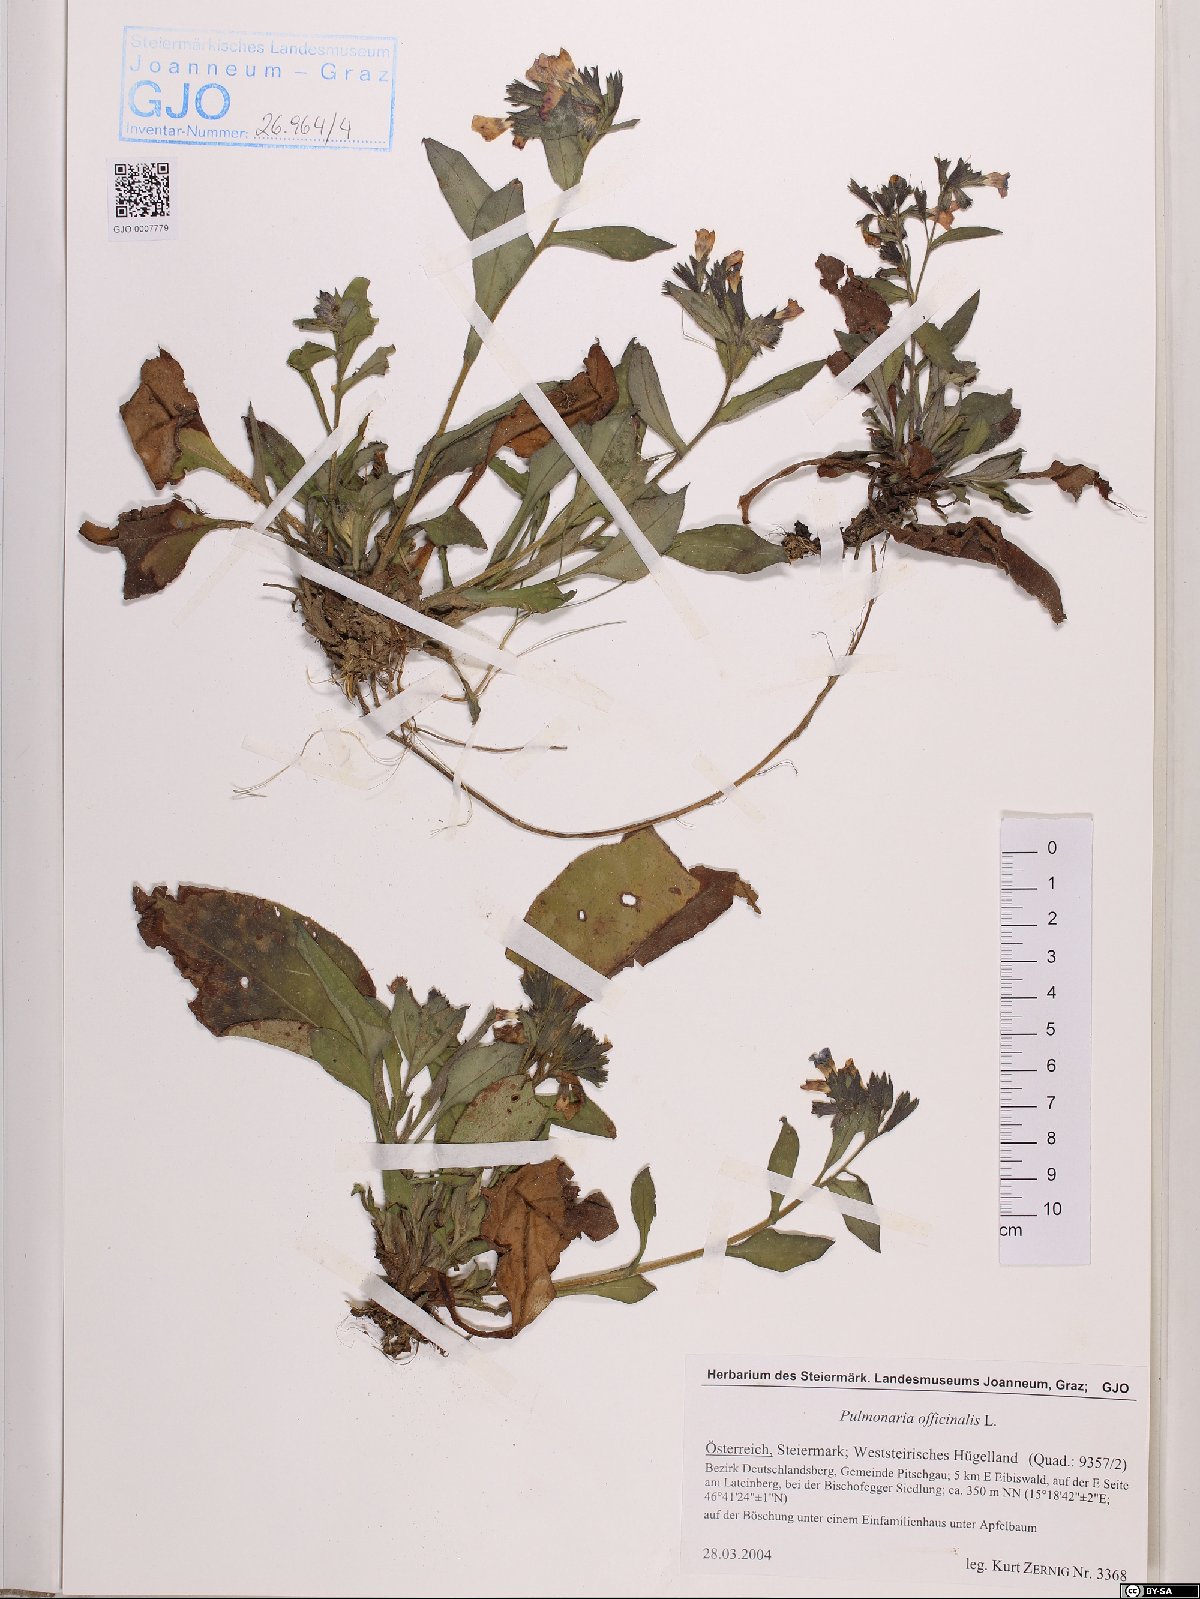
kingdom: Plantae
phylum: Tracheophyta
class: Magnoliopsida
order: Boraginales
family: Boraginaceae
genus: Pulmonaria
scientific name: Pulmonaria officinalis
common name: Lungwort
